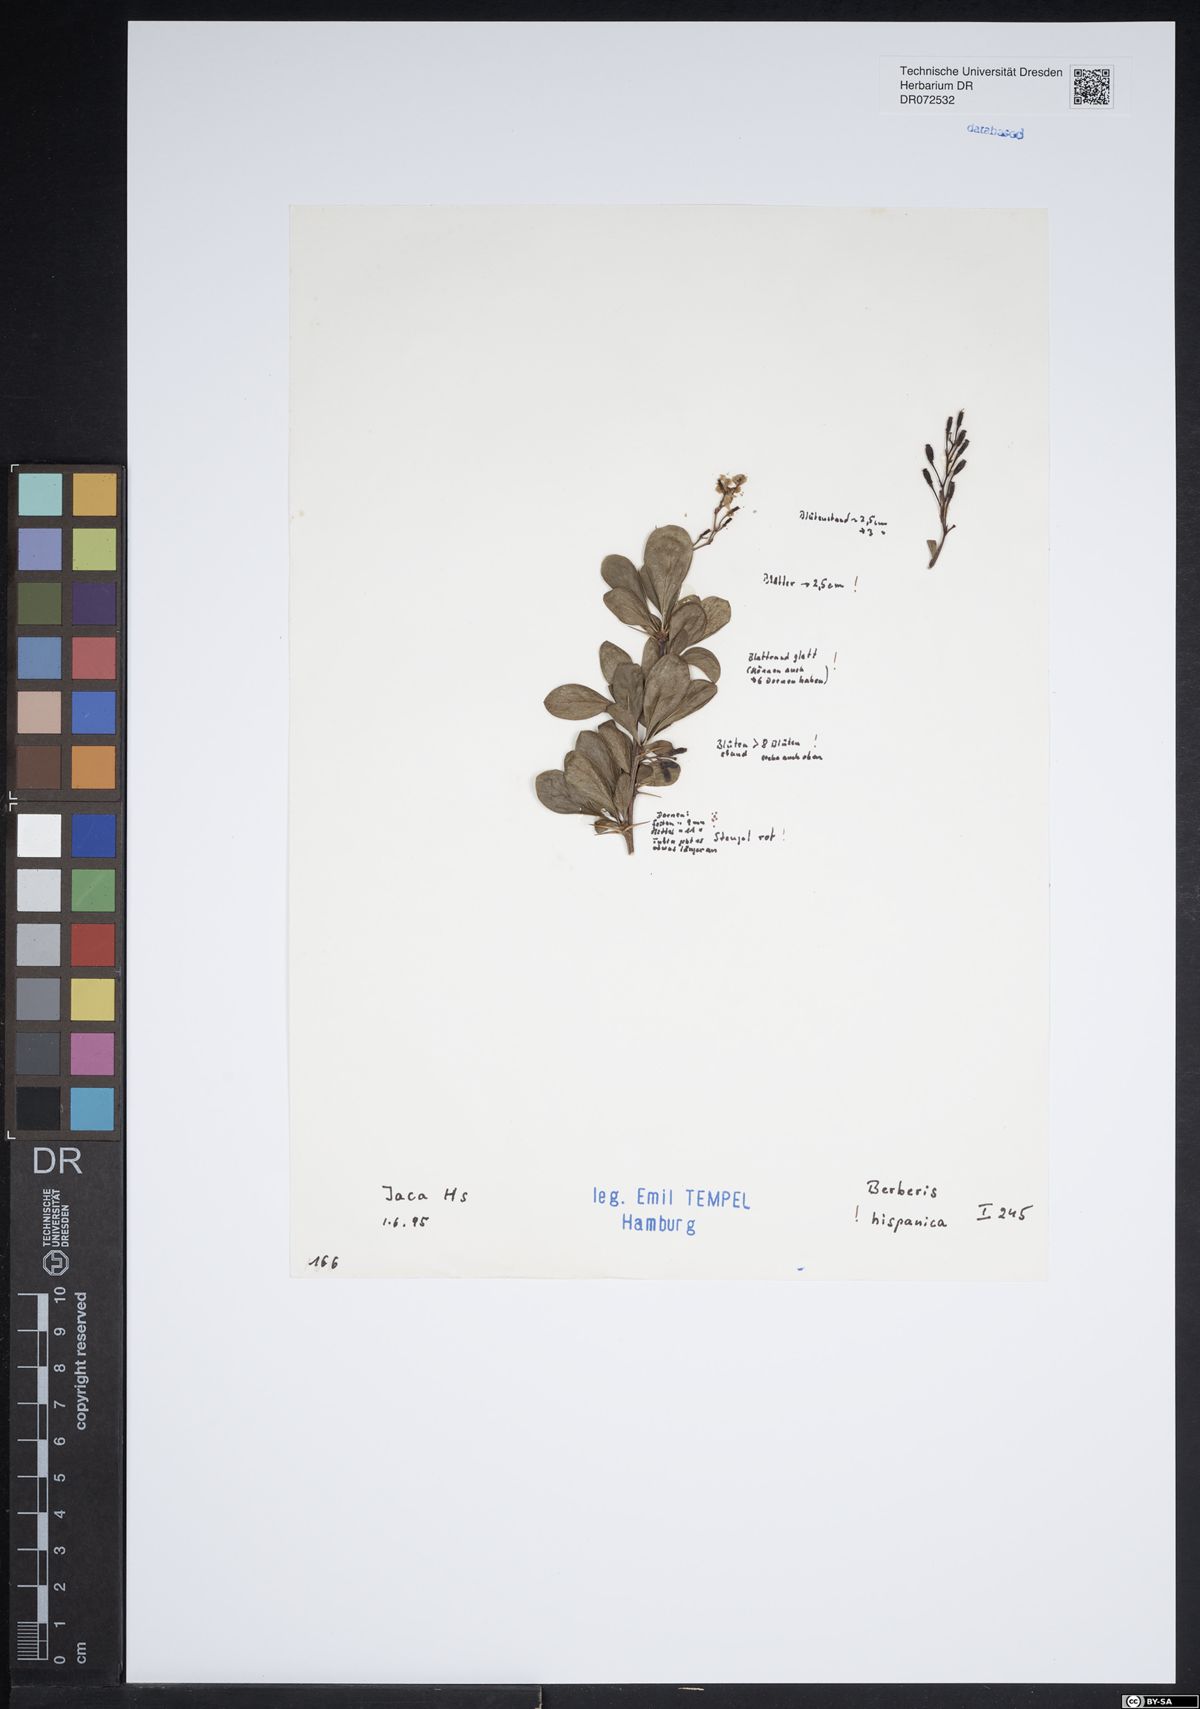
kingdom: Plantae
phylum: Tracheophyta
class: Magnoliopsida
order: Ranunculales
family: Berberidaceae
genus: Berberis
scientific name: Berberis hispanica
